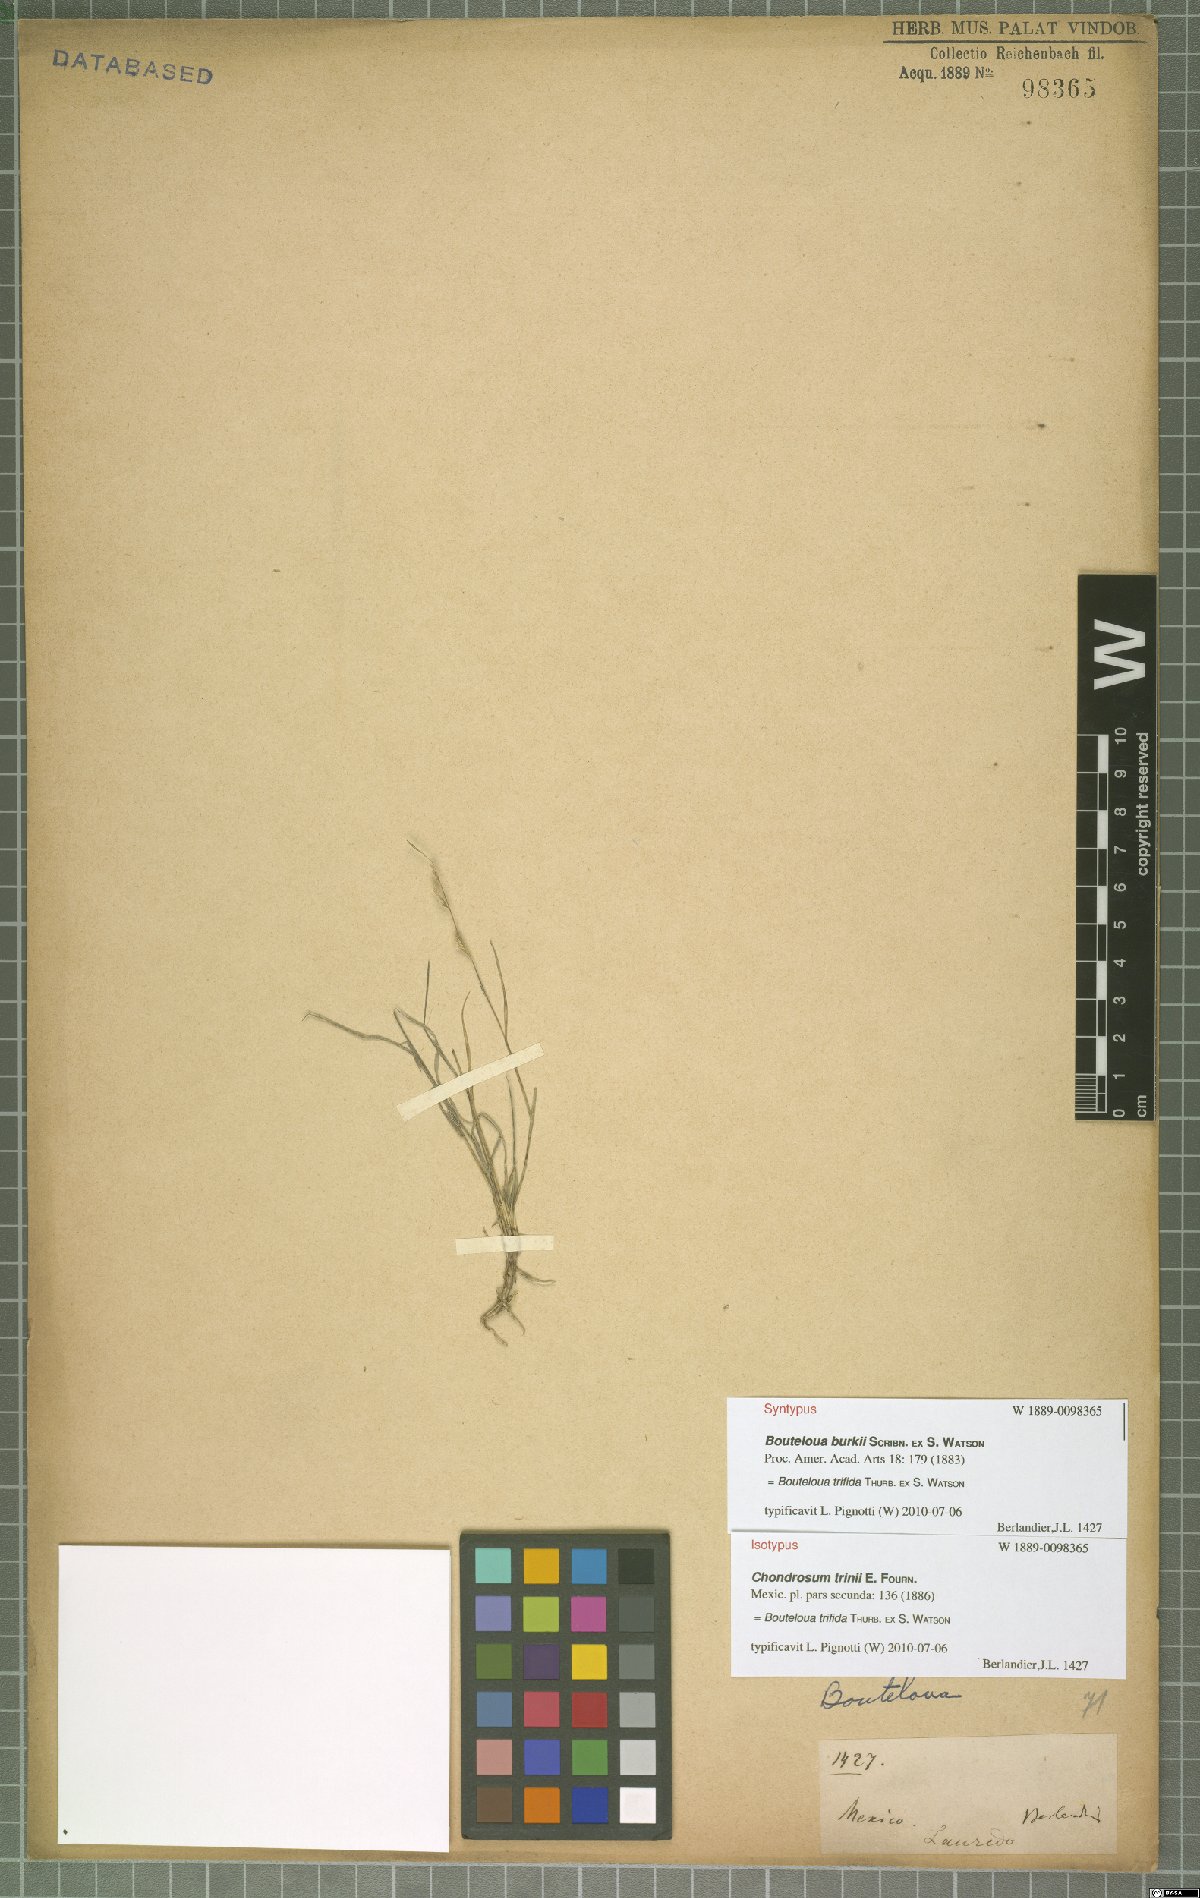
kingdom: Plantae
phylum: Tracheophyta
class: Liliopsida
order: Poales
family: Poaceae
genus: Bouteloua
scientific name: Bouteloua trifida
